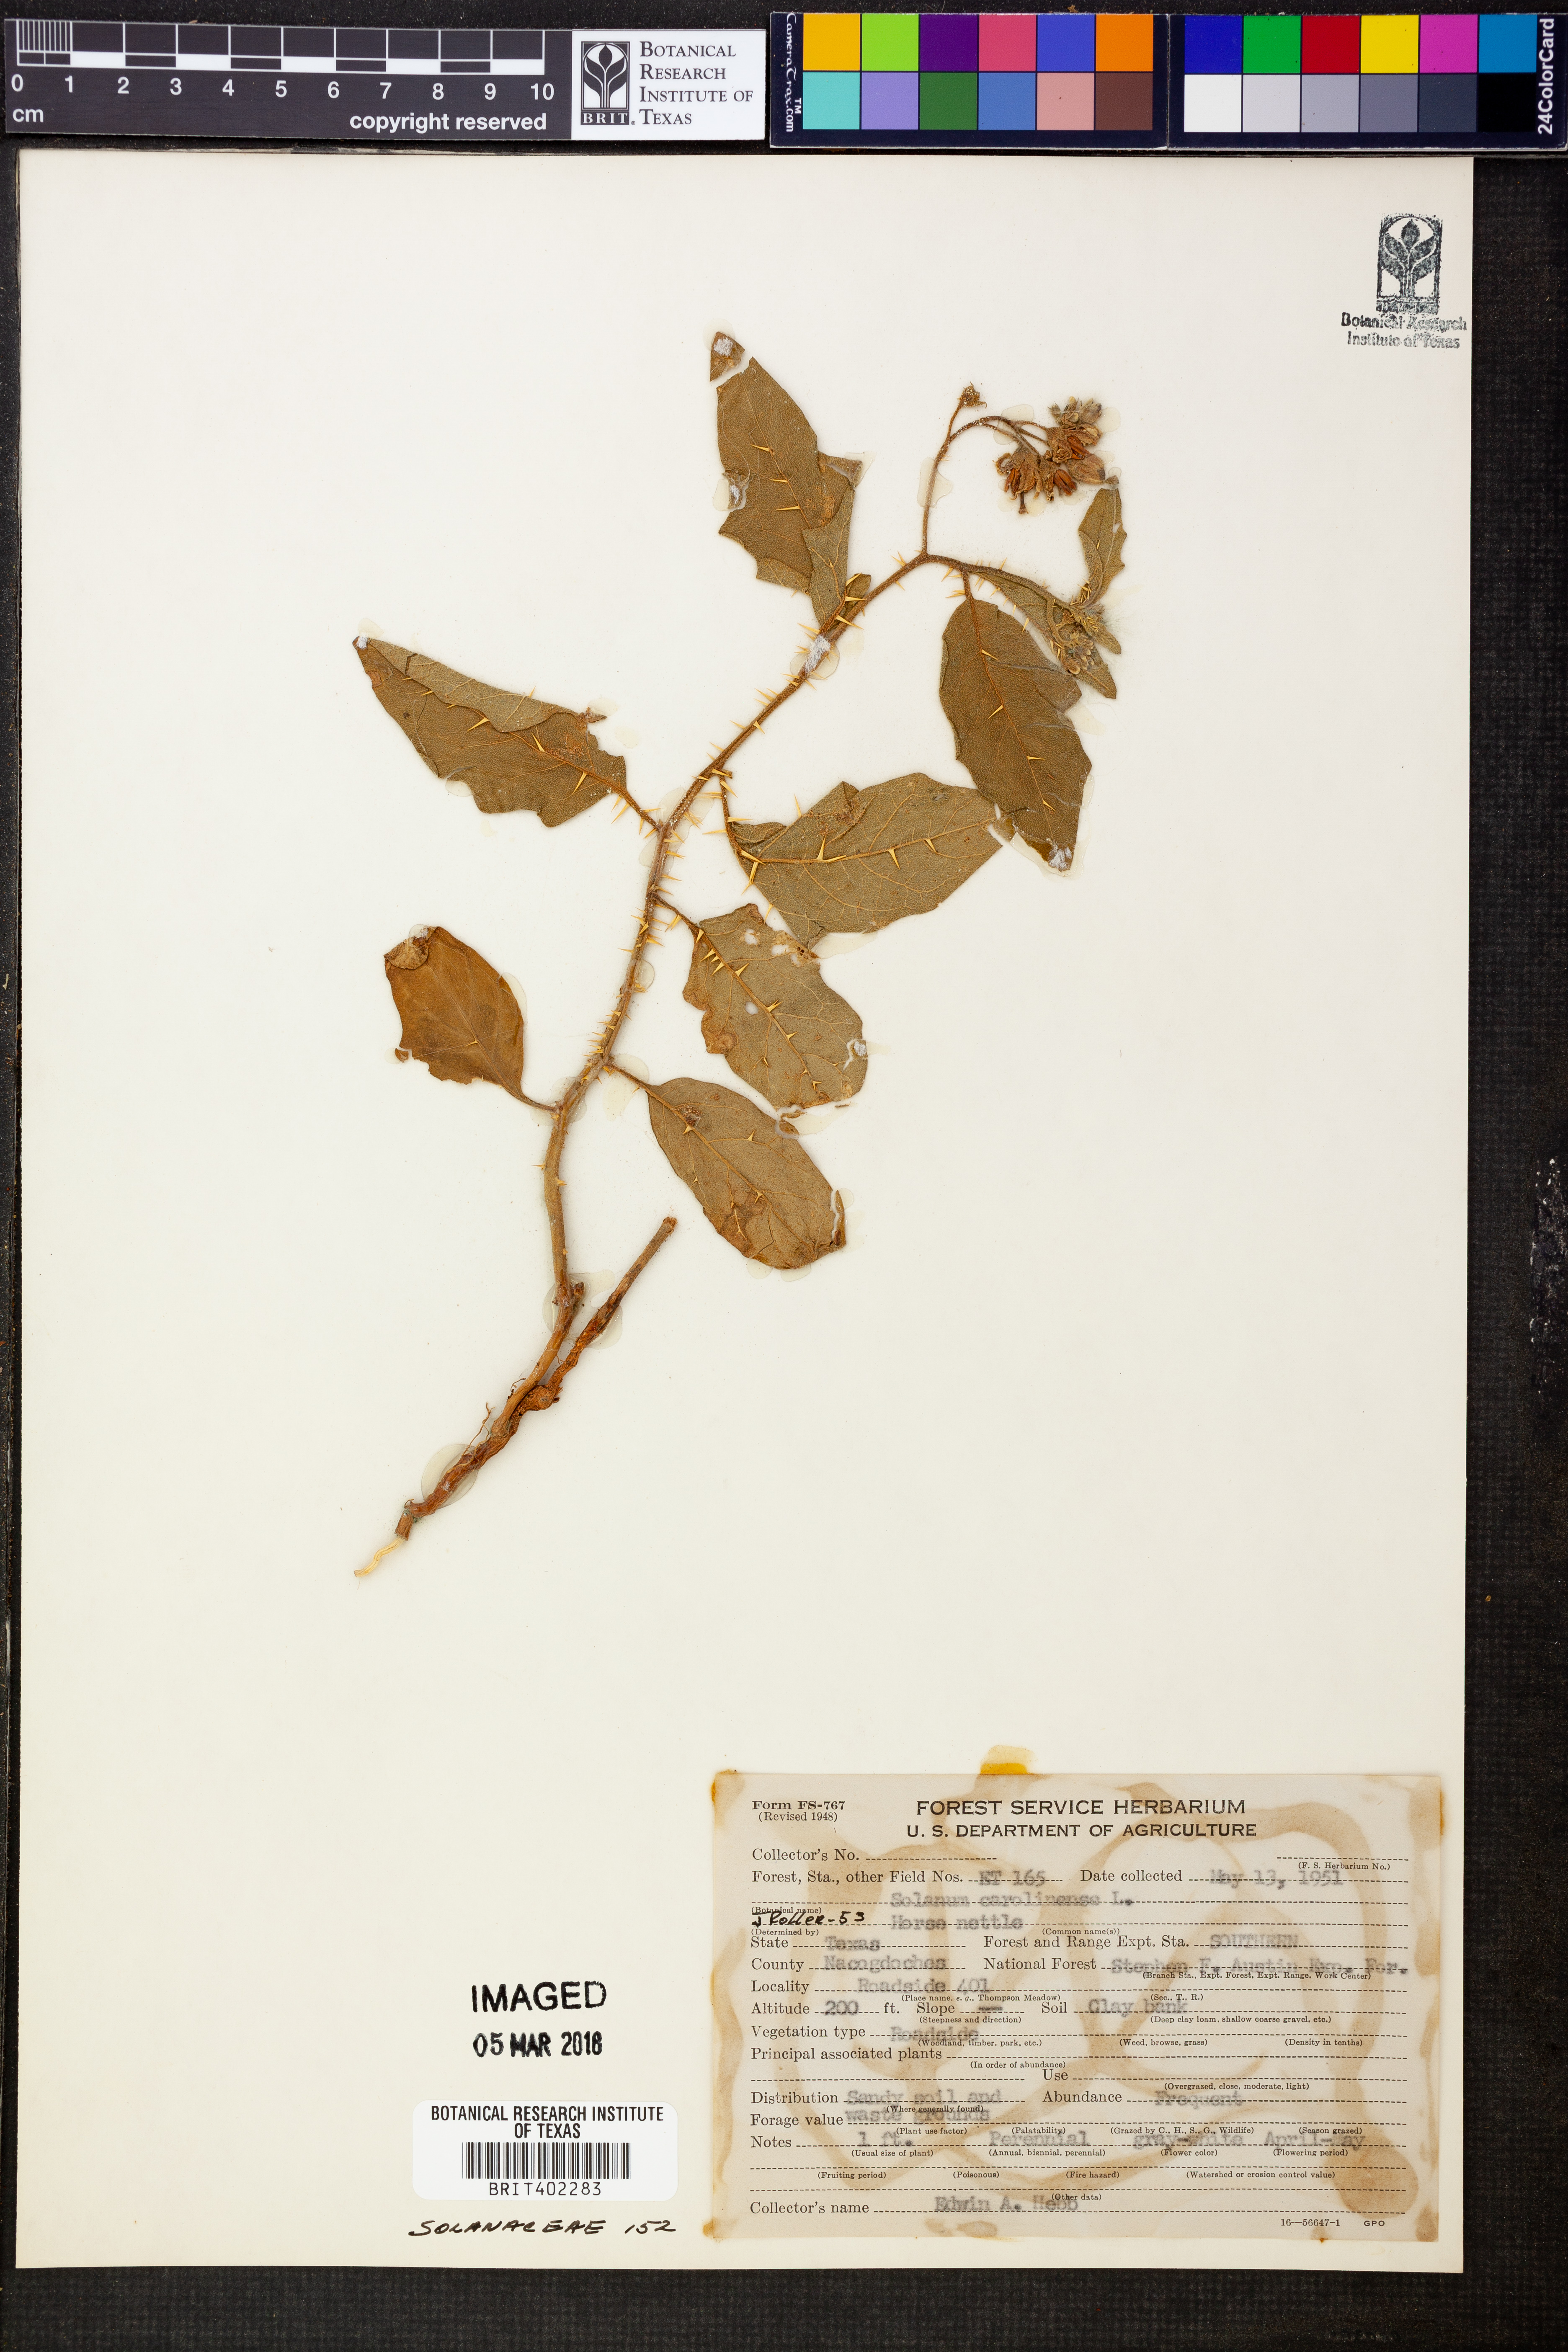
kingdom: Plantae
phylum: Tracheophyta
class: Magnoliopsida
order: Solanales
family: Solanaceae
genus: Solanum
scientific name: Solanum carolinense
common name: Horse-nettle
